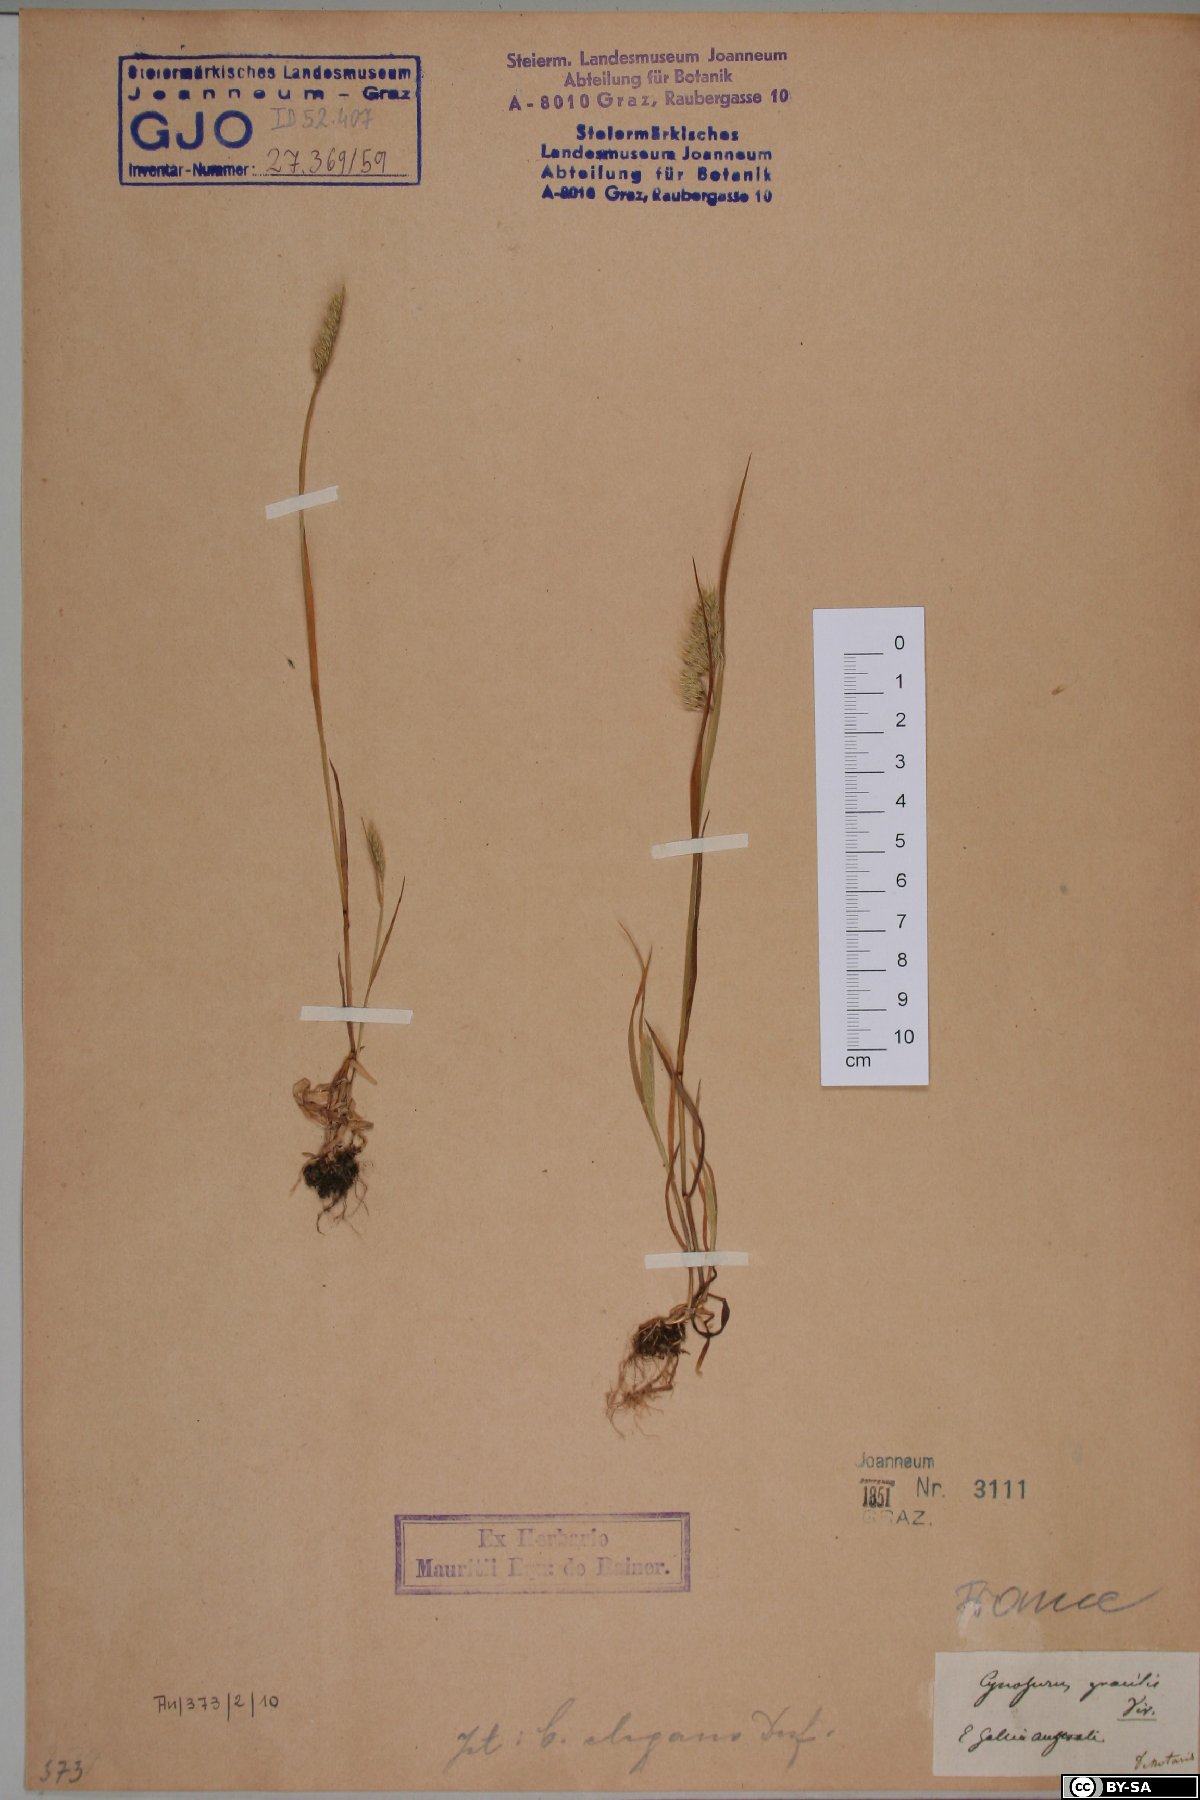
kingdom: Plantae
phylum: Tracheophyta
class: Liliopsida
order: Poales
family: Poaceae
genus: Cynosurus
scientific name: Cynosurus effusus
